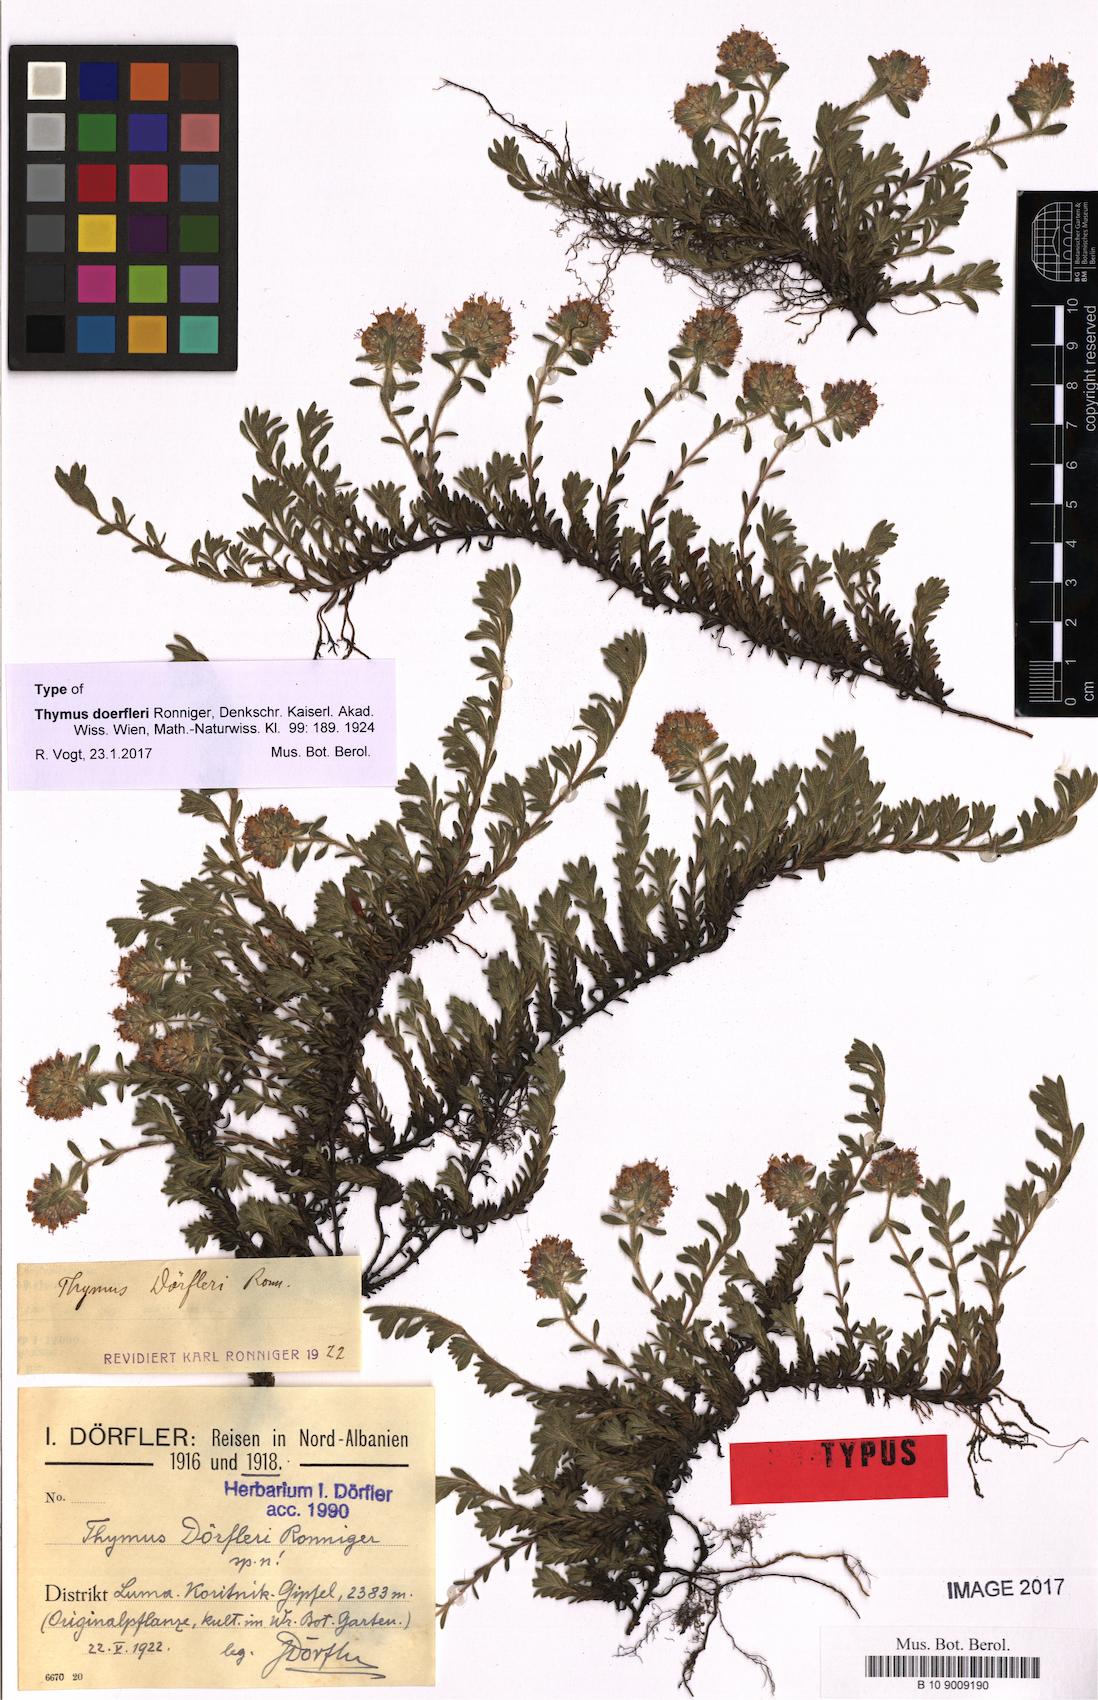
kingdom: Plantae
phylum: Tracheophyta
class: Magnoliopsida
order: Lamiales
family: Lamiaceae
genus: Thymus
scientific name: Thymus doerfleri
